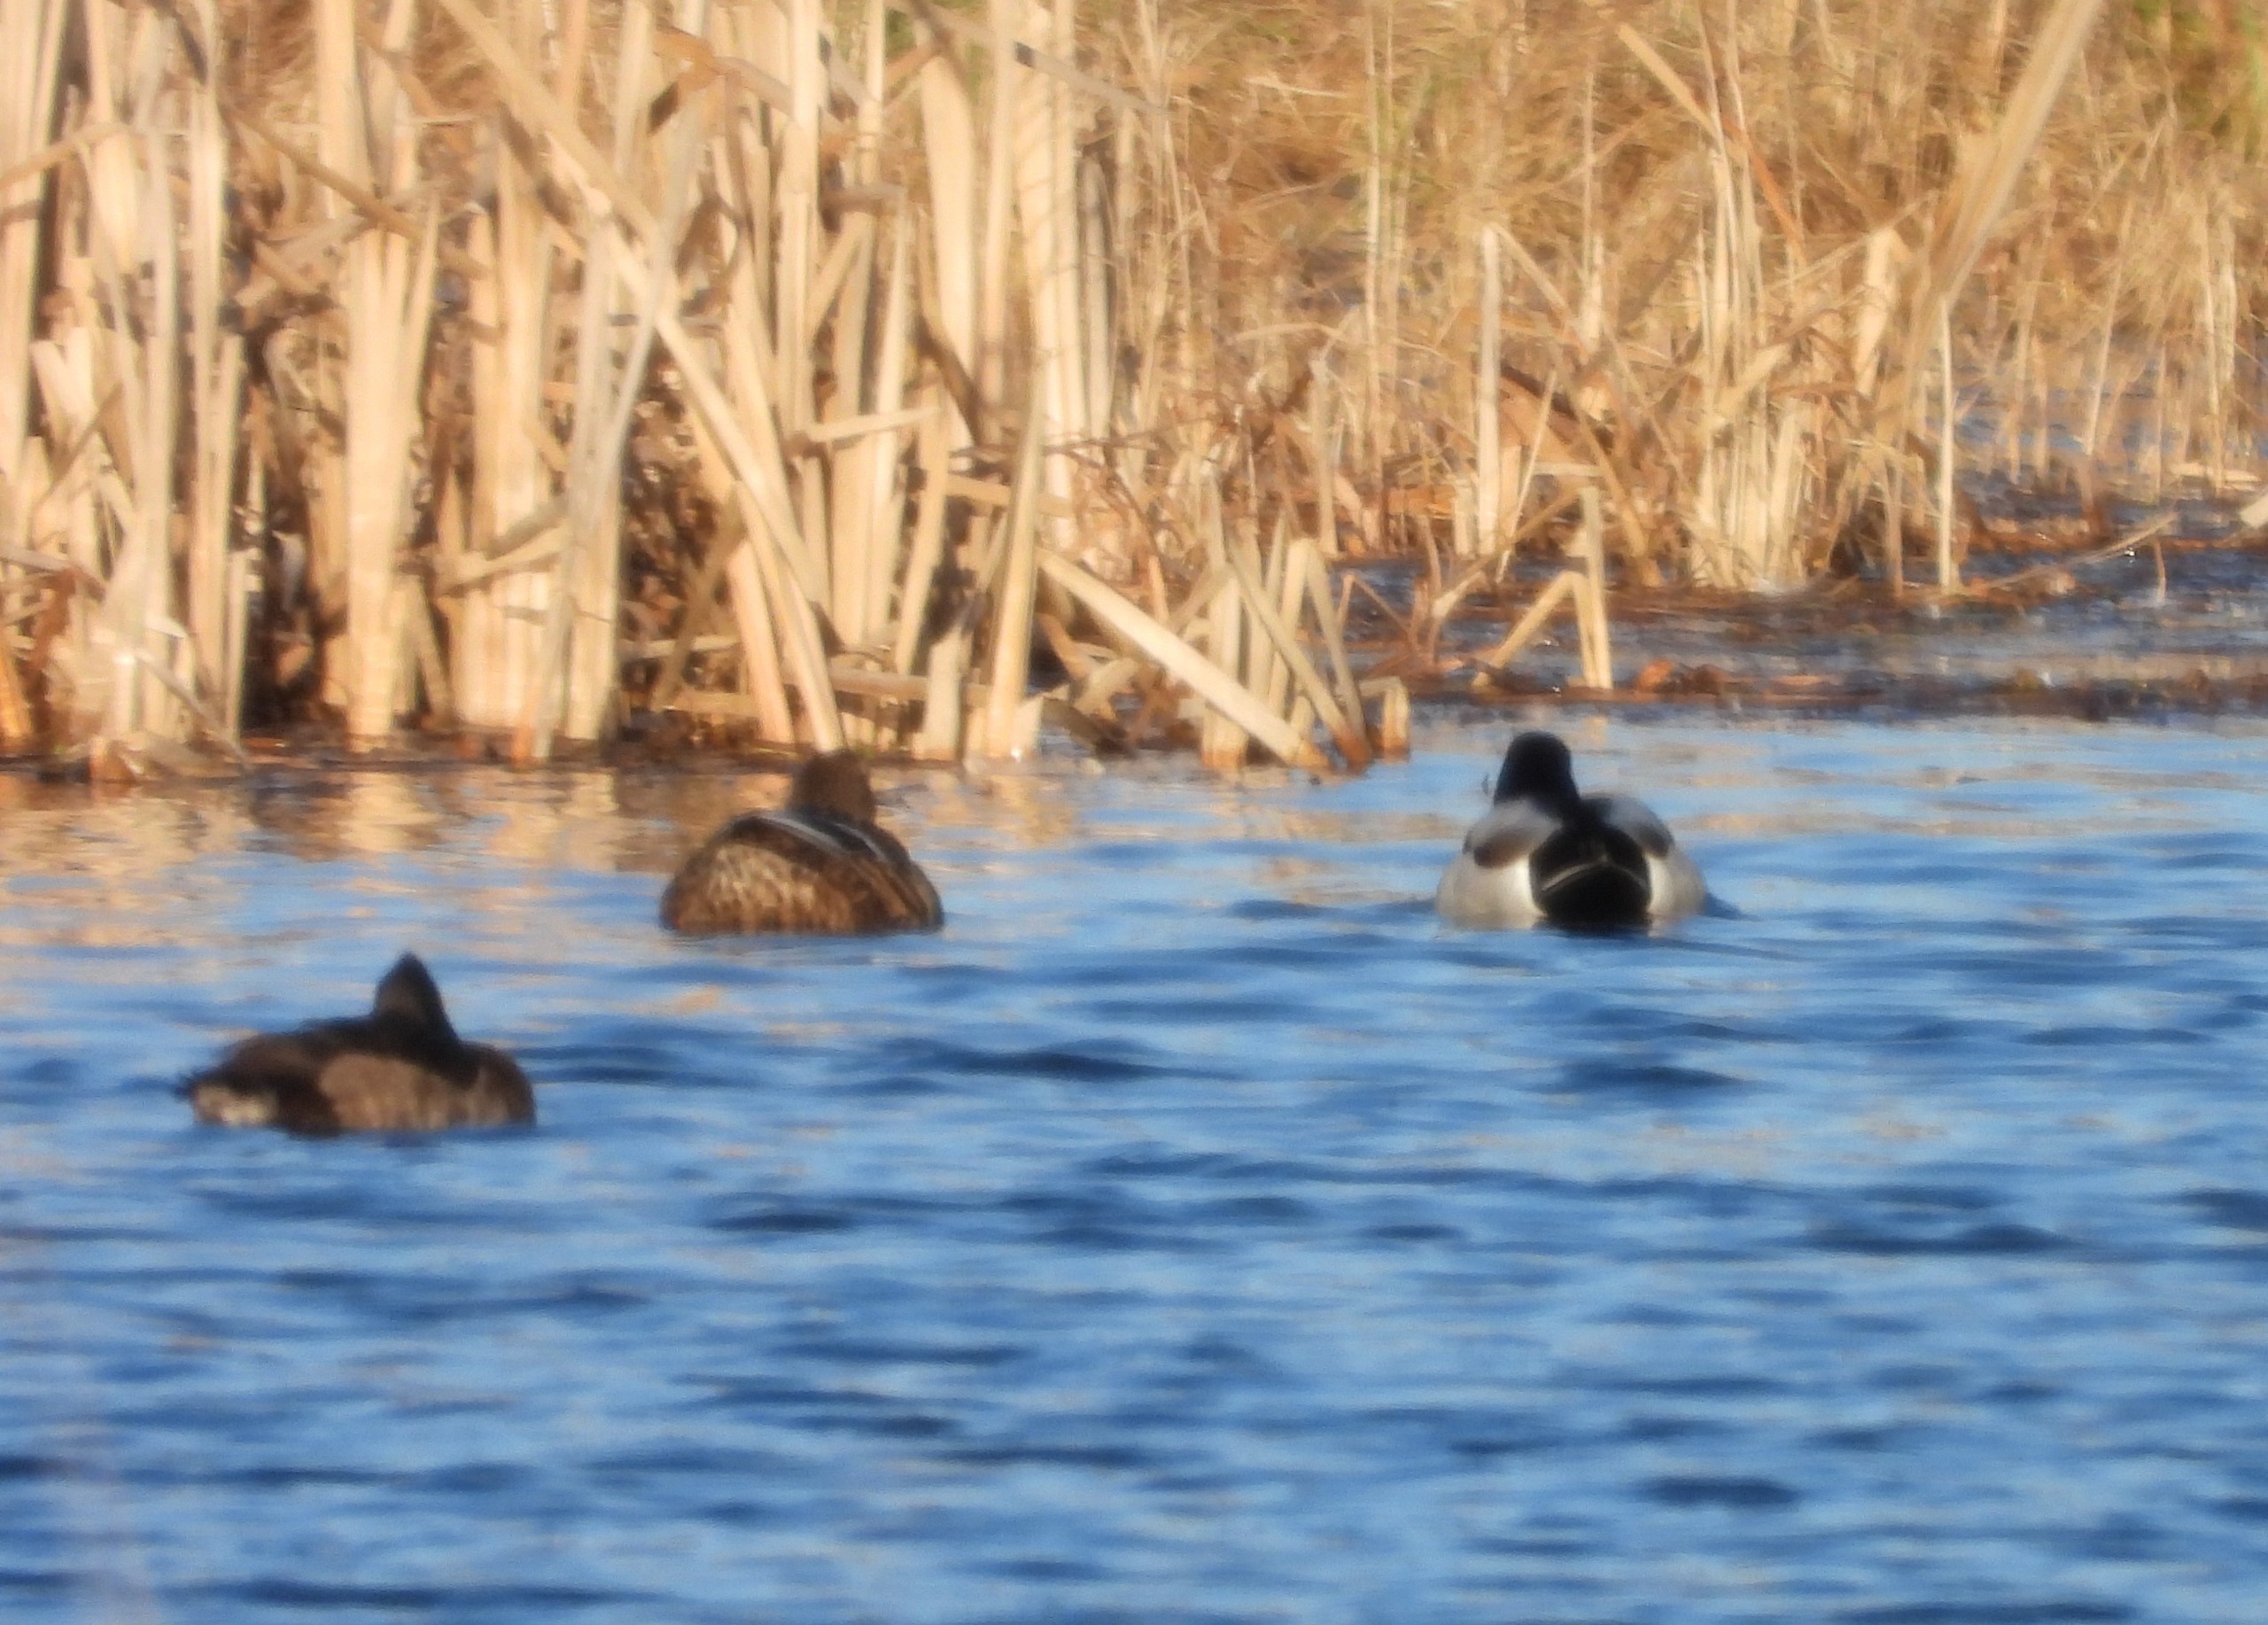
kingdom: Animalia
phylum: Chordata
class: Aves
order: Anseriformes
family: Anatidae
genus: Anas
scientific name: Anas platyrhynchos
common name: Gråand
